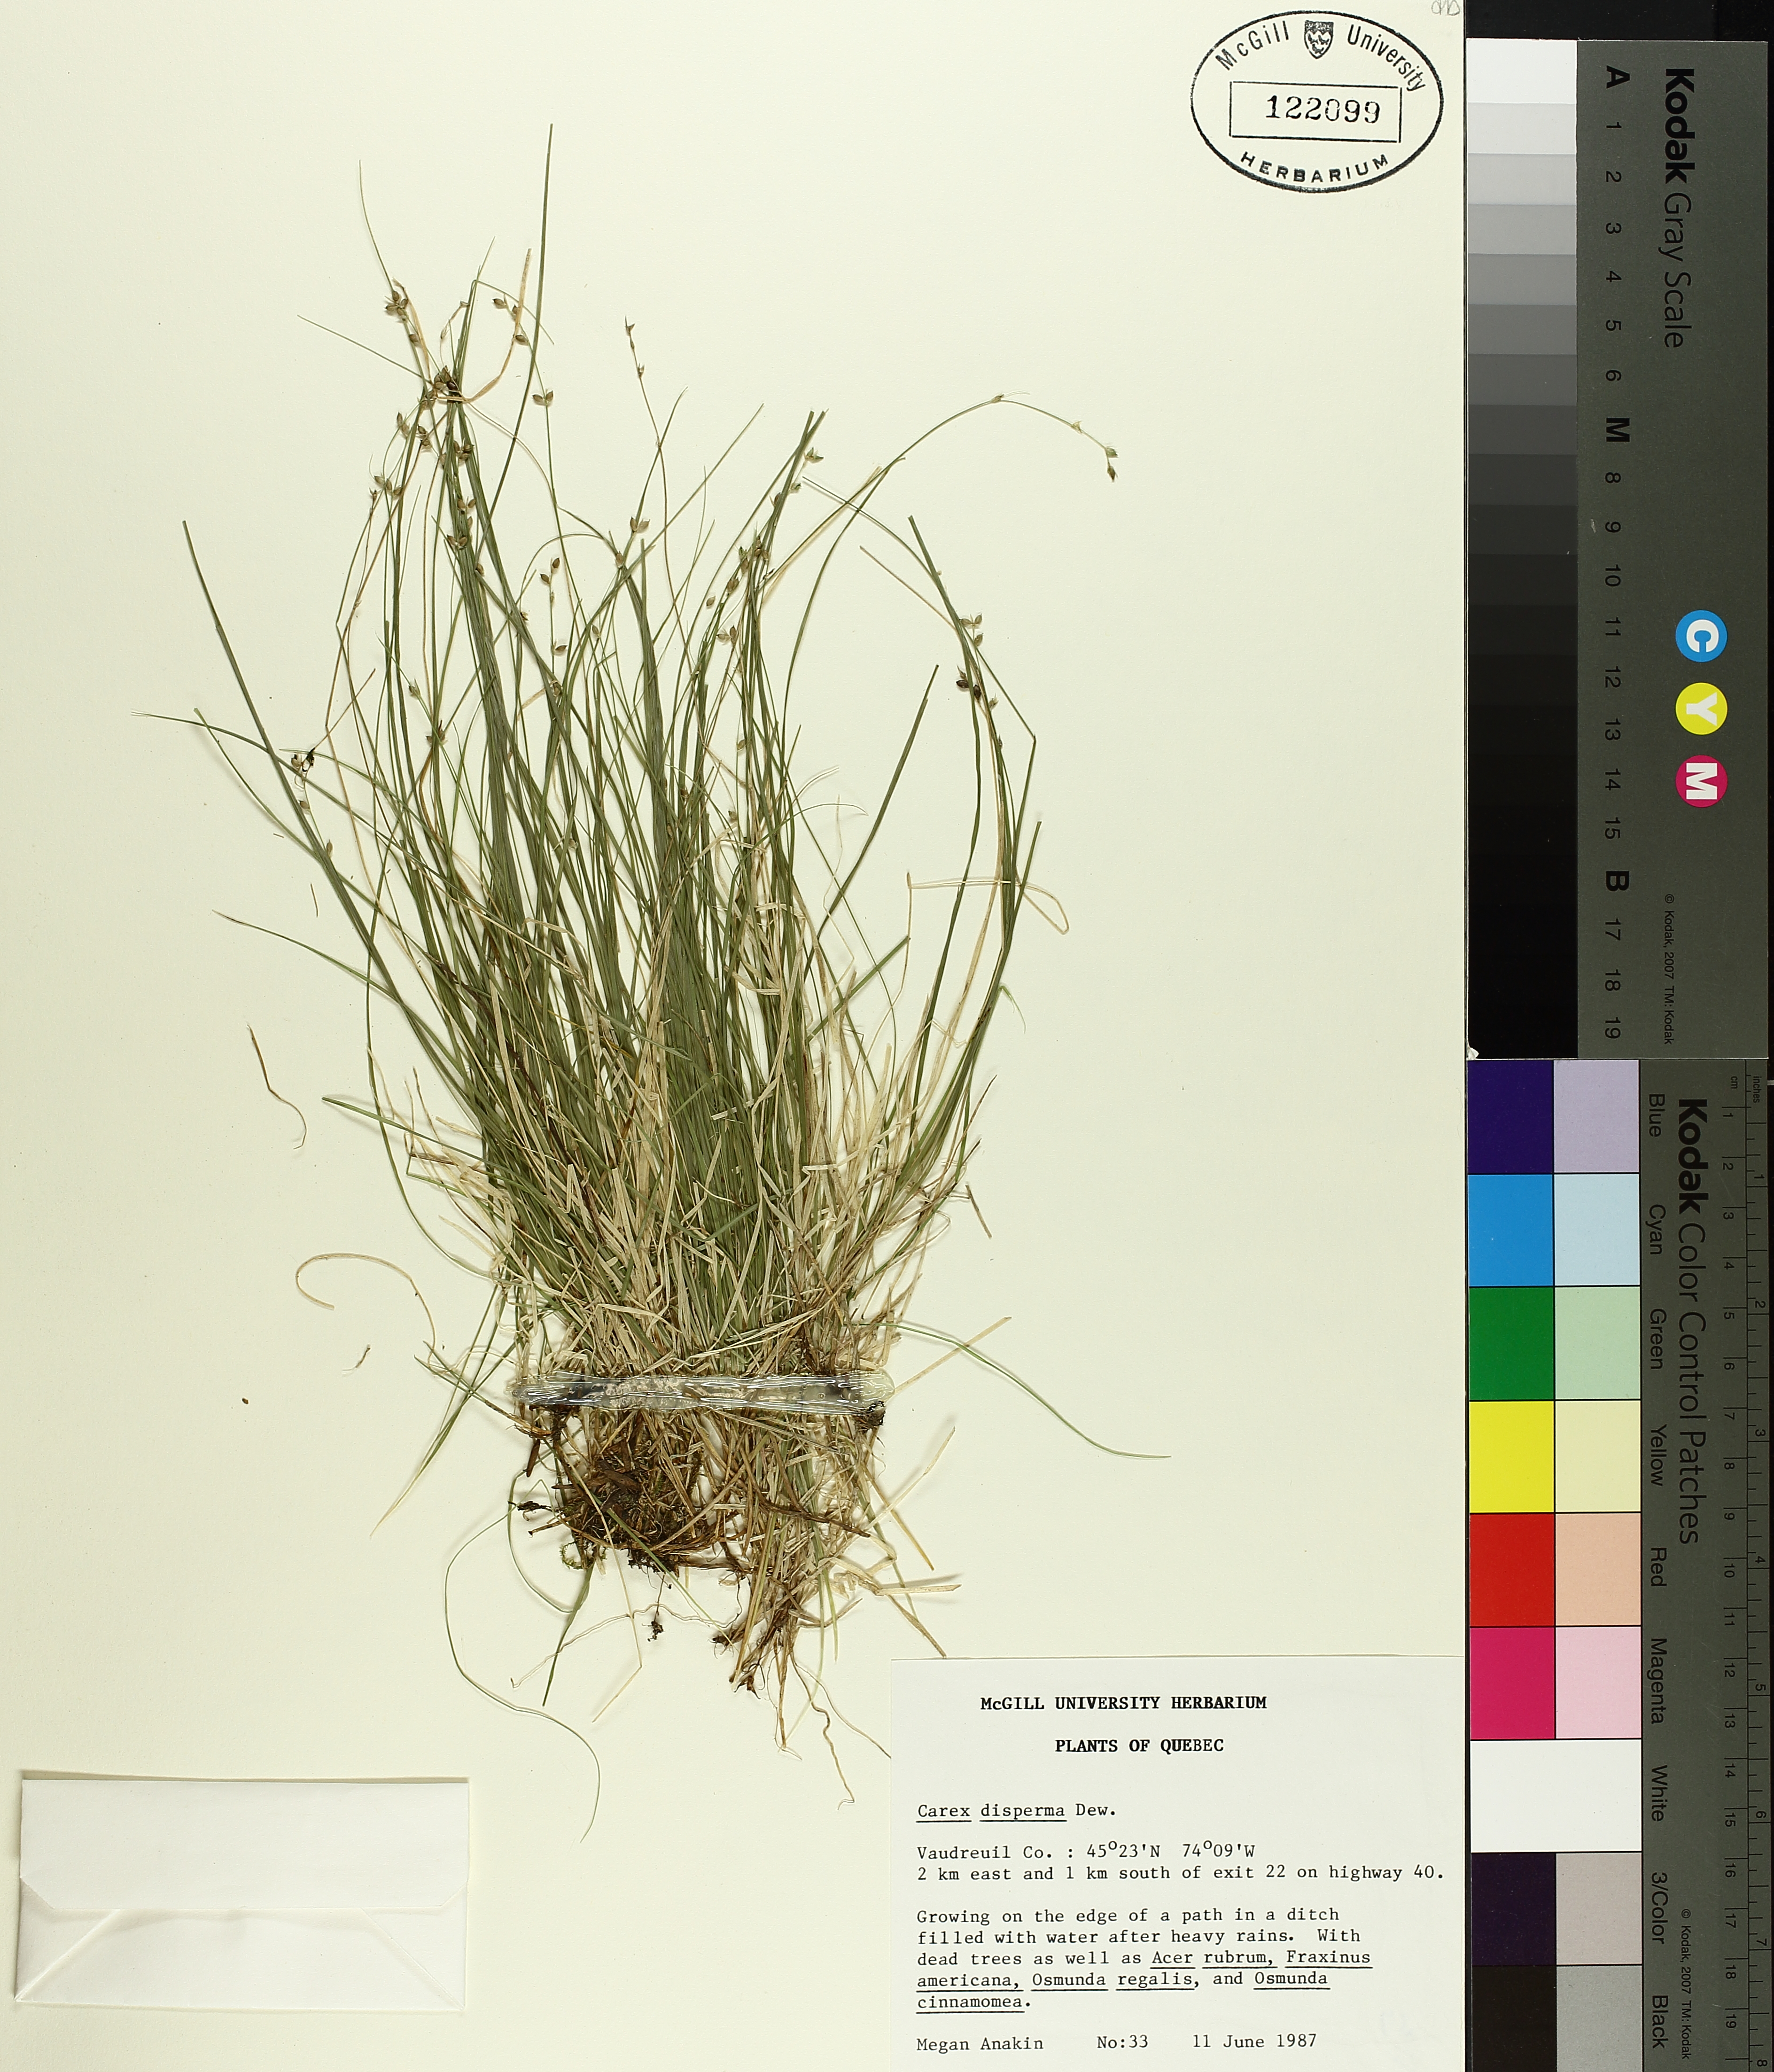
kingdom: Plantae
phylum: Tracheophyta
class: Liliopsida
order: Poales
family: Cyperaceae
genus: Carex
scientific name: Carex disperma
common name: Short-leaved sedge
